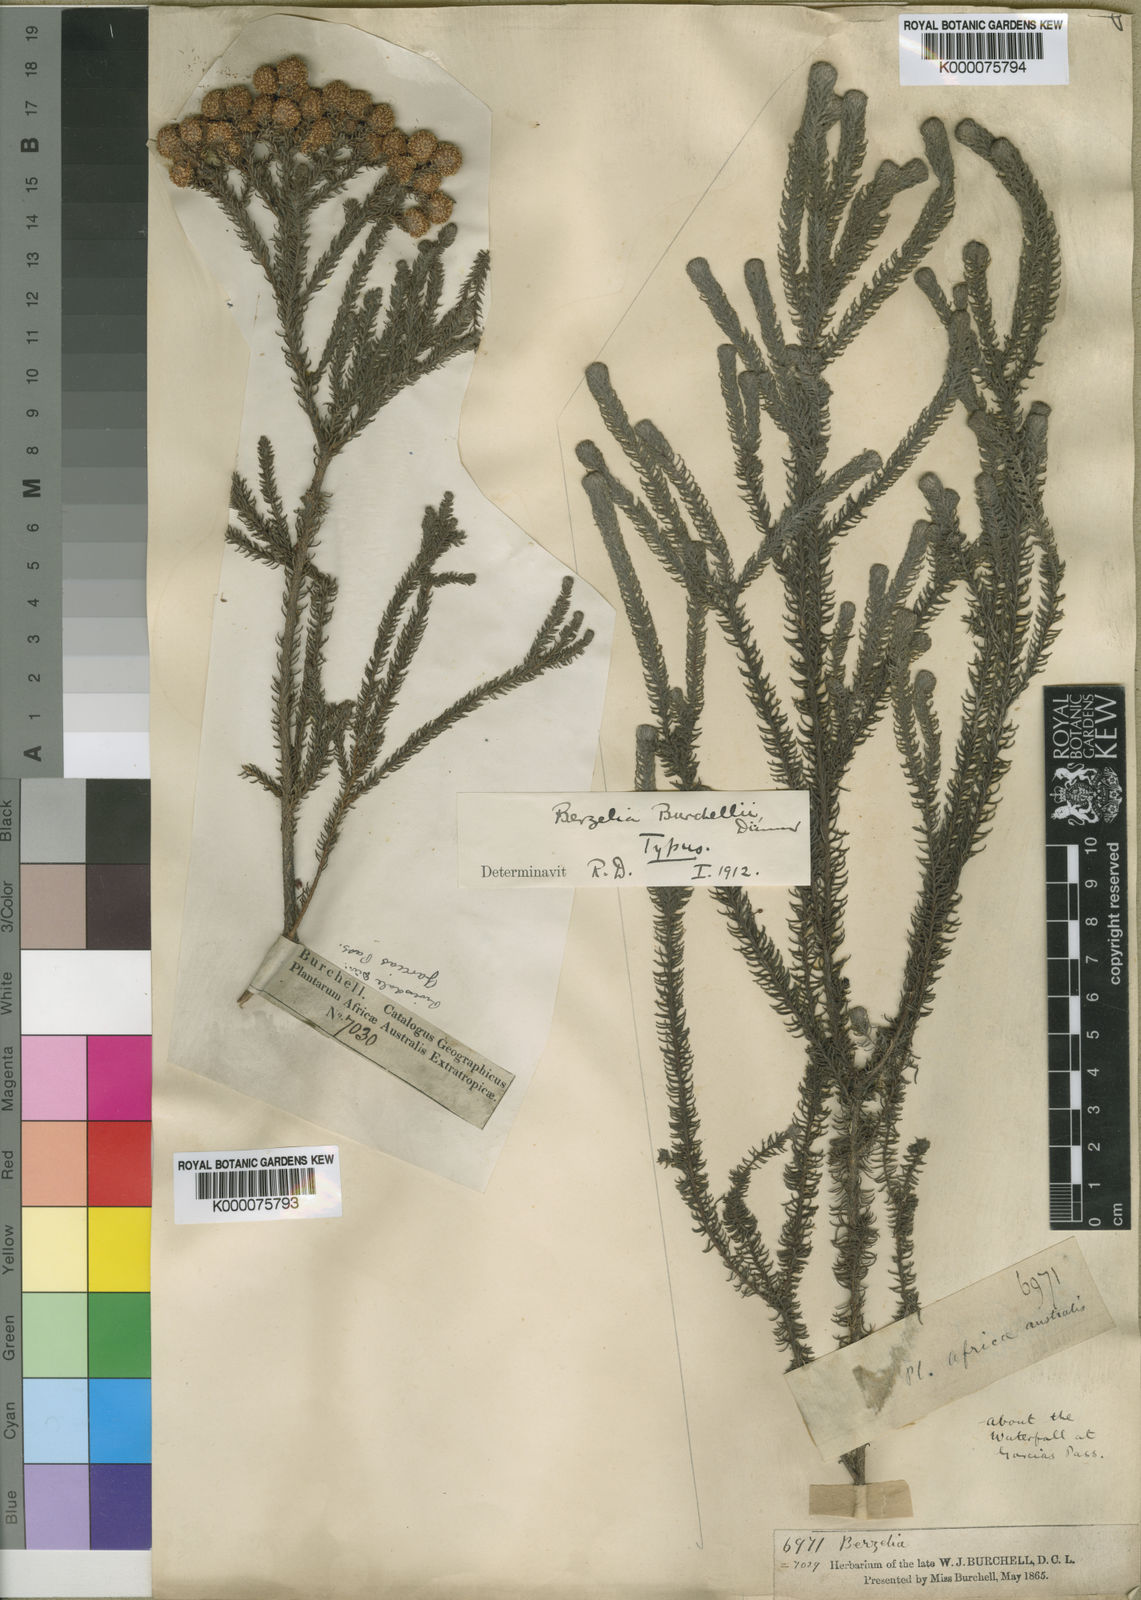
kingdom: Plantae
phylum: Tracheophyta
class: Magnoliopsida
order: Bruniales
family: Bruniaceae
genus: Berzelia
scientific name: Berzelia burchellii
